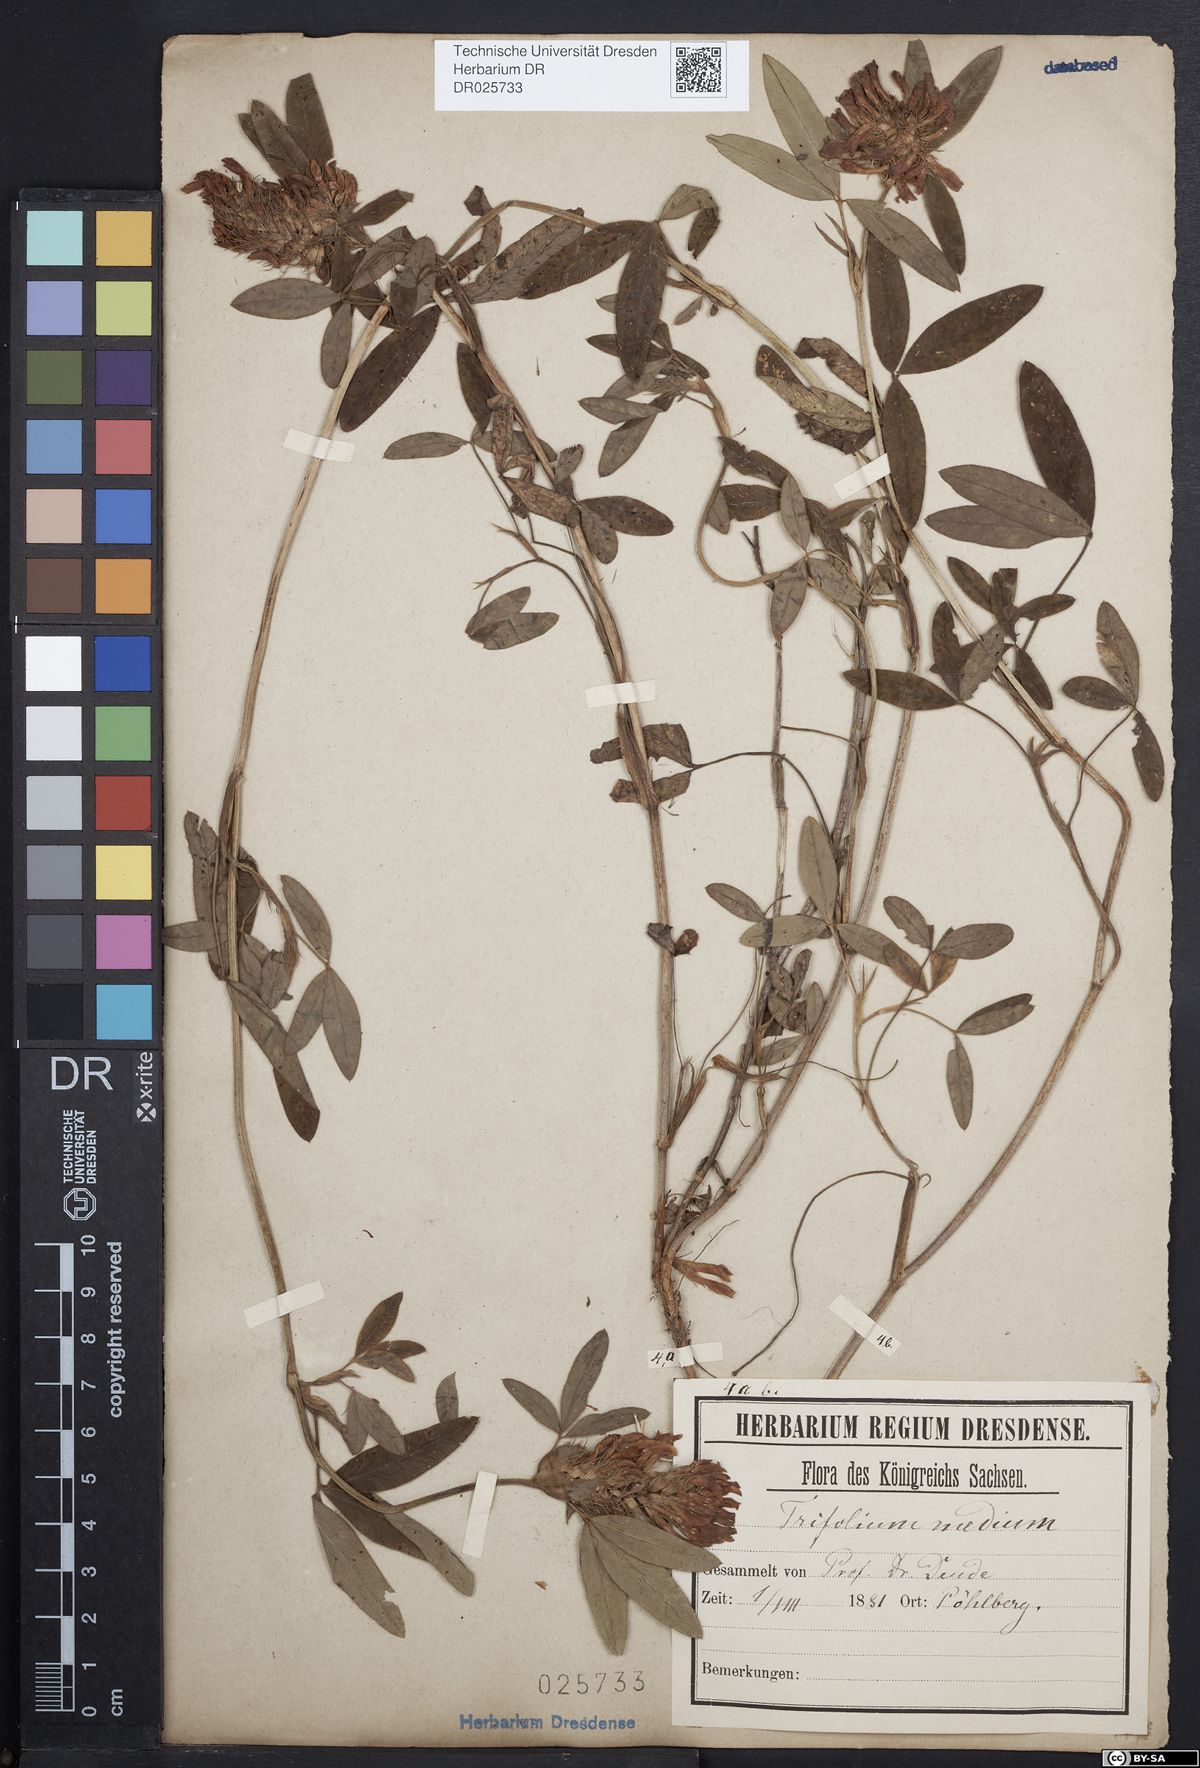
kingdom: Plantae
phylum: Tracheophyta
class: Magnoliopsida
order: Fabales
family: Fabaceae
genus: Trifolium
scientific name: Trifolium medium
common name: Zigzag clover
